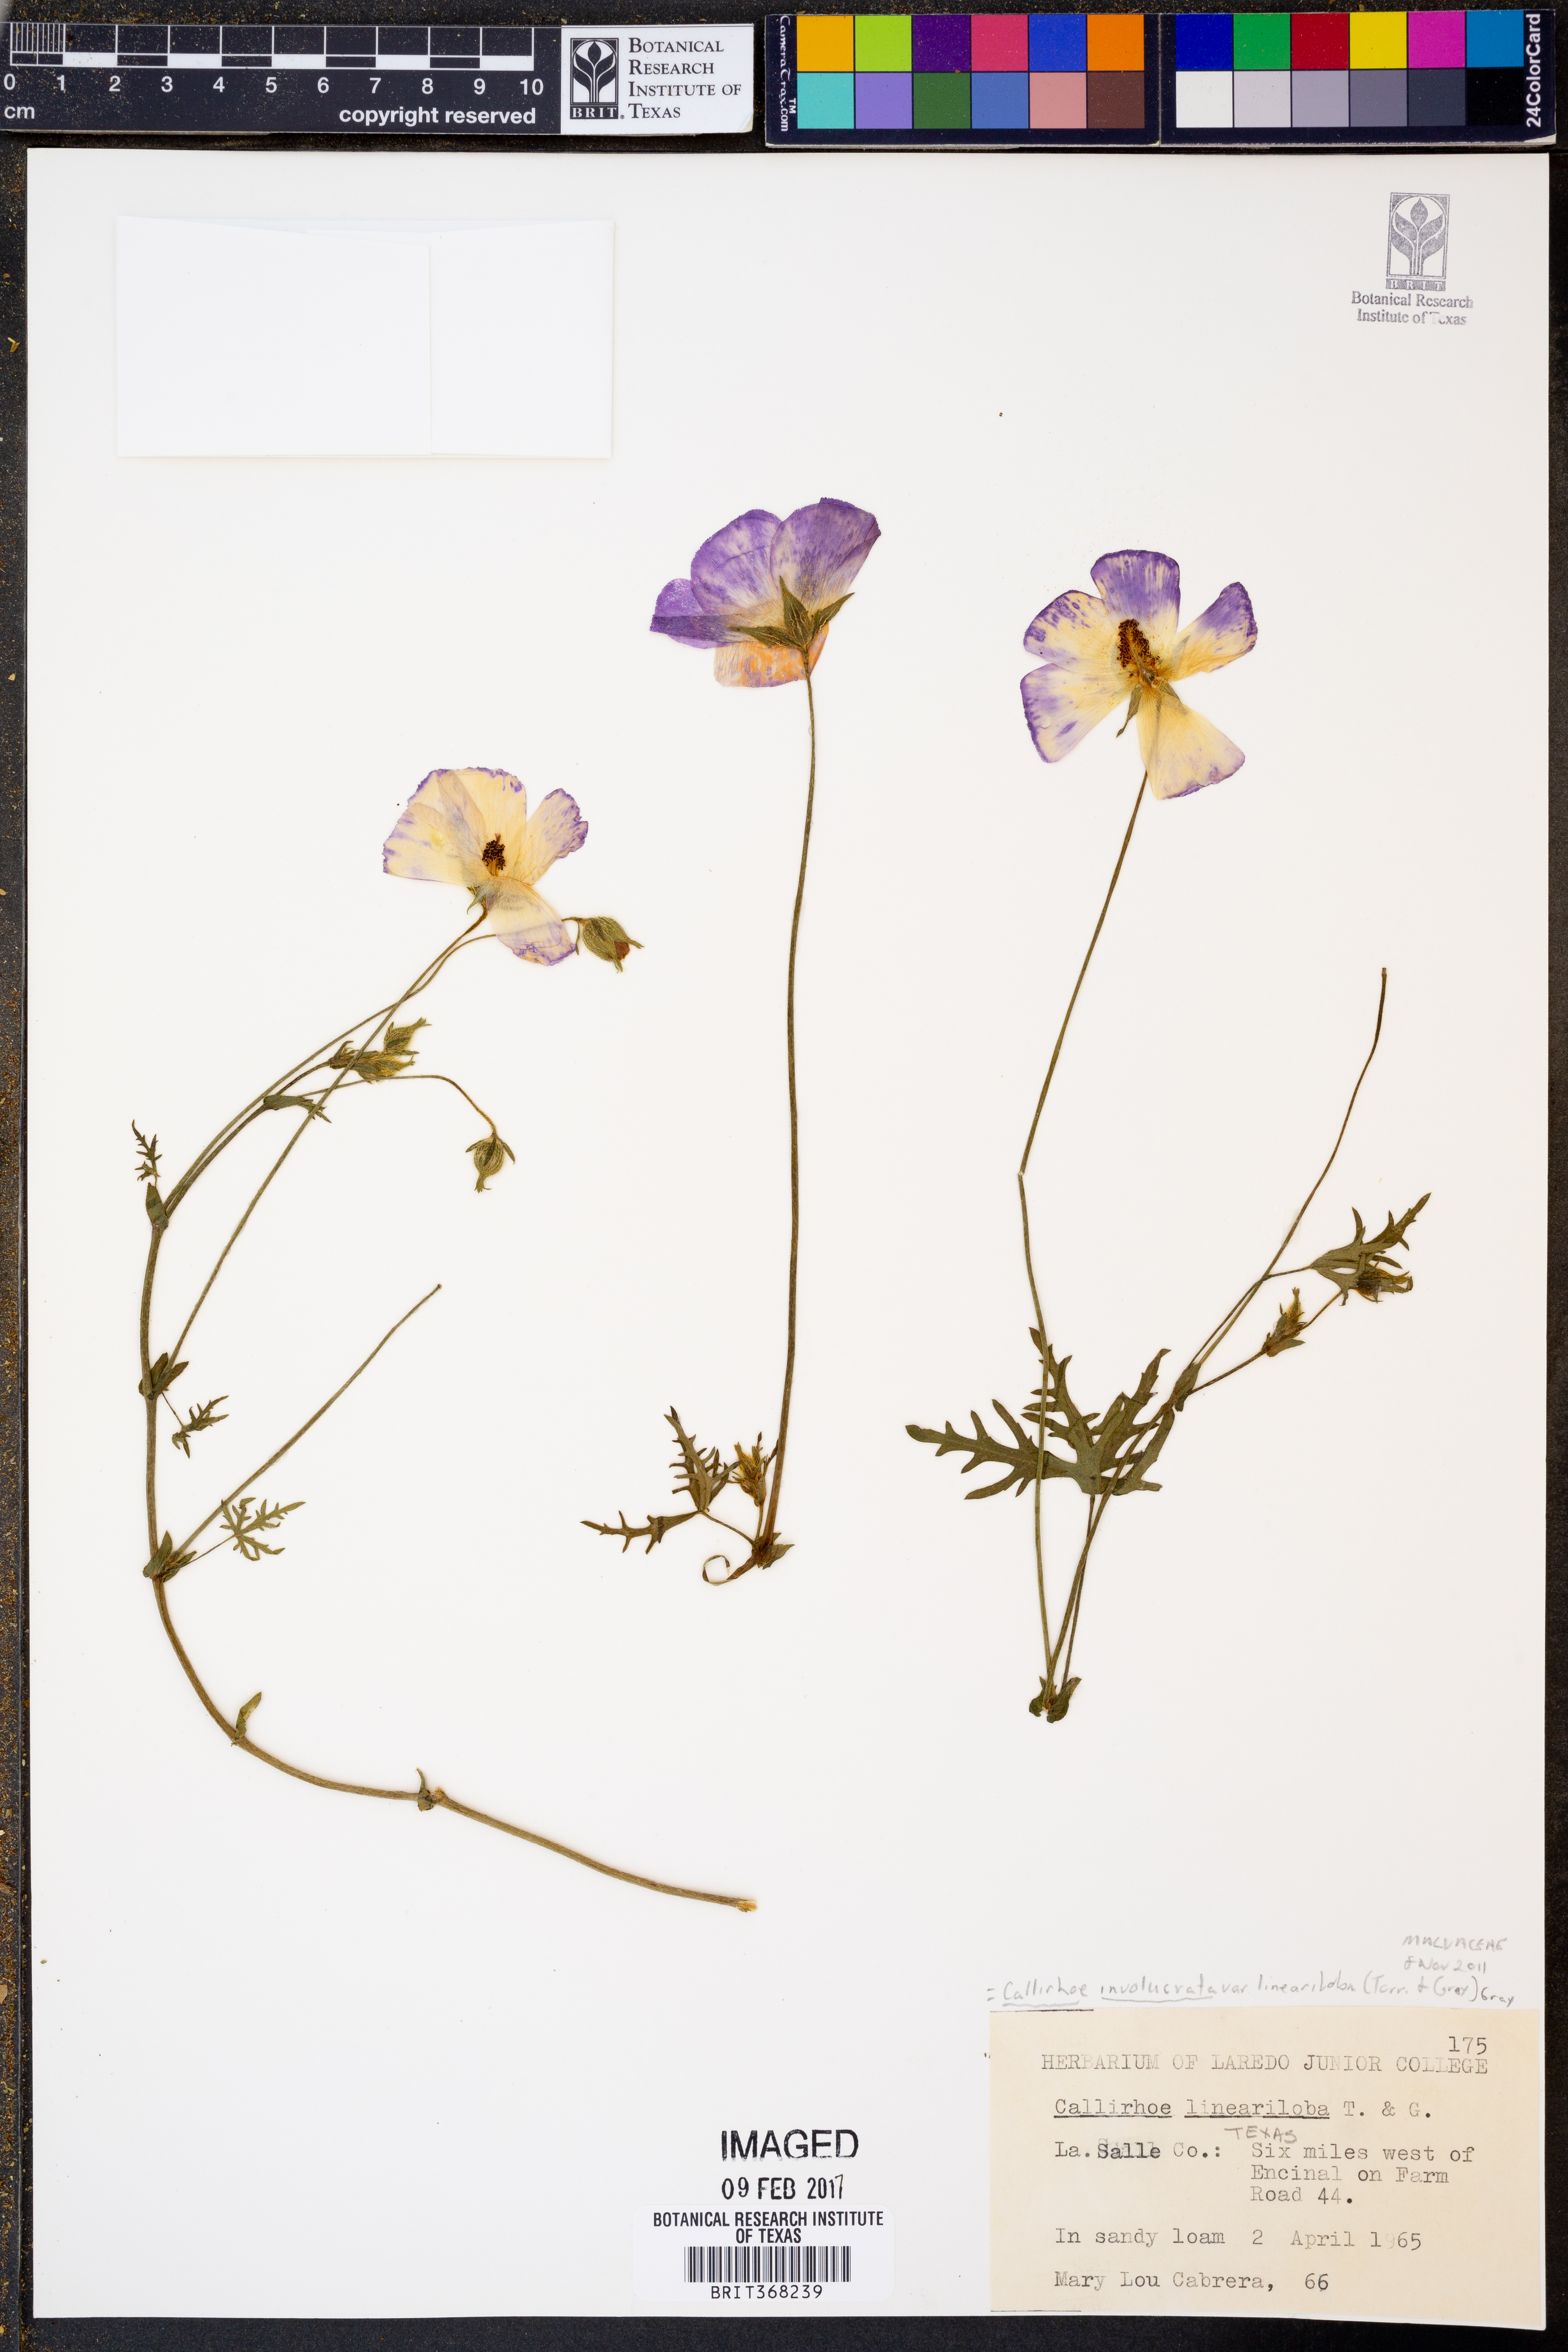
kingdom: Plantae
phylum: Tracheophyta
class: Magnoliopsida
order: Malvales
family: Malvaceae
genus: Callirhoe
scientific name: Callirhoe involucrata
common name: Purple poppy-mallow
